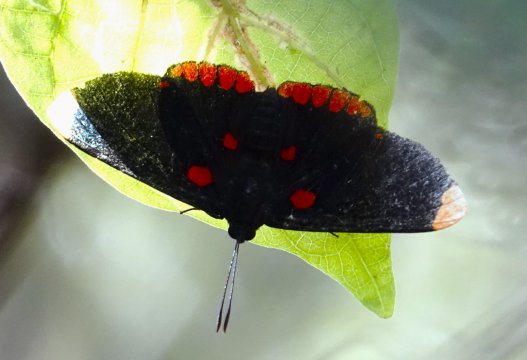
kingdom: Animalia
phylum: Arthropoda
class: Insecta
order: Lepidoptera
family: Lycaenidae
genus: Melanis
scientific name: Melanis pixe
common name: Red-bordered Pixie
